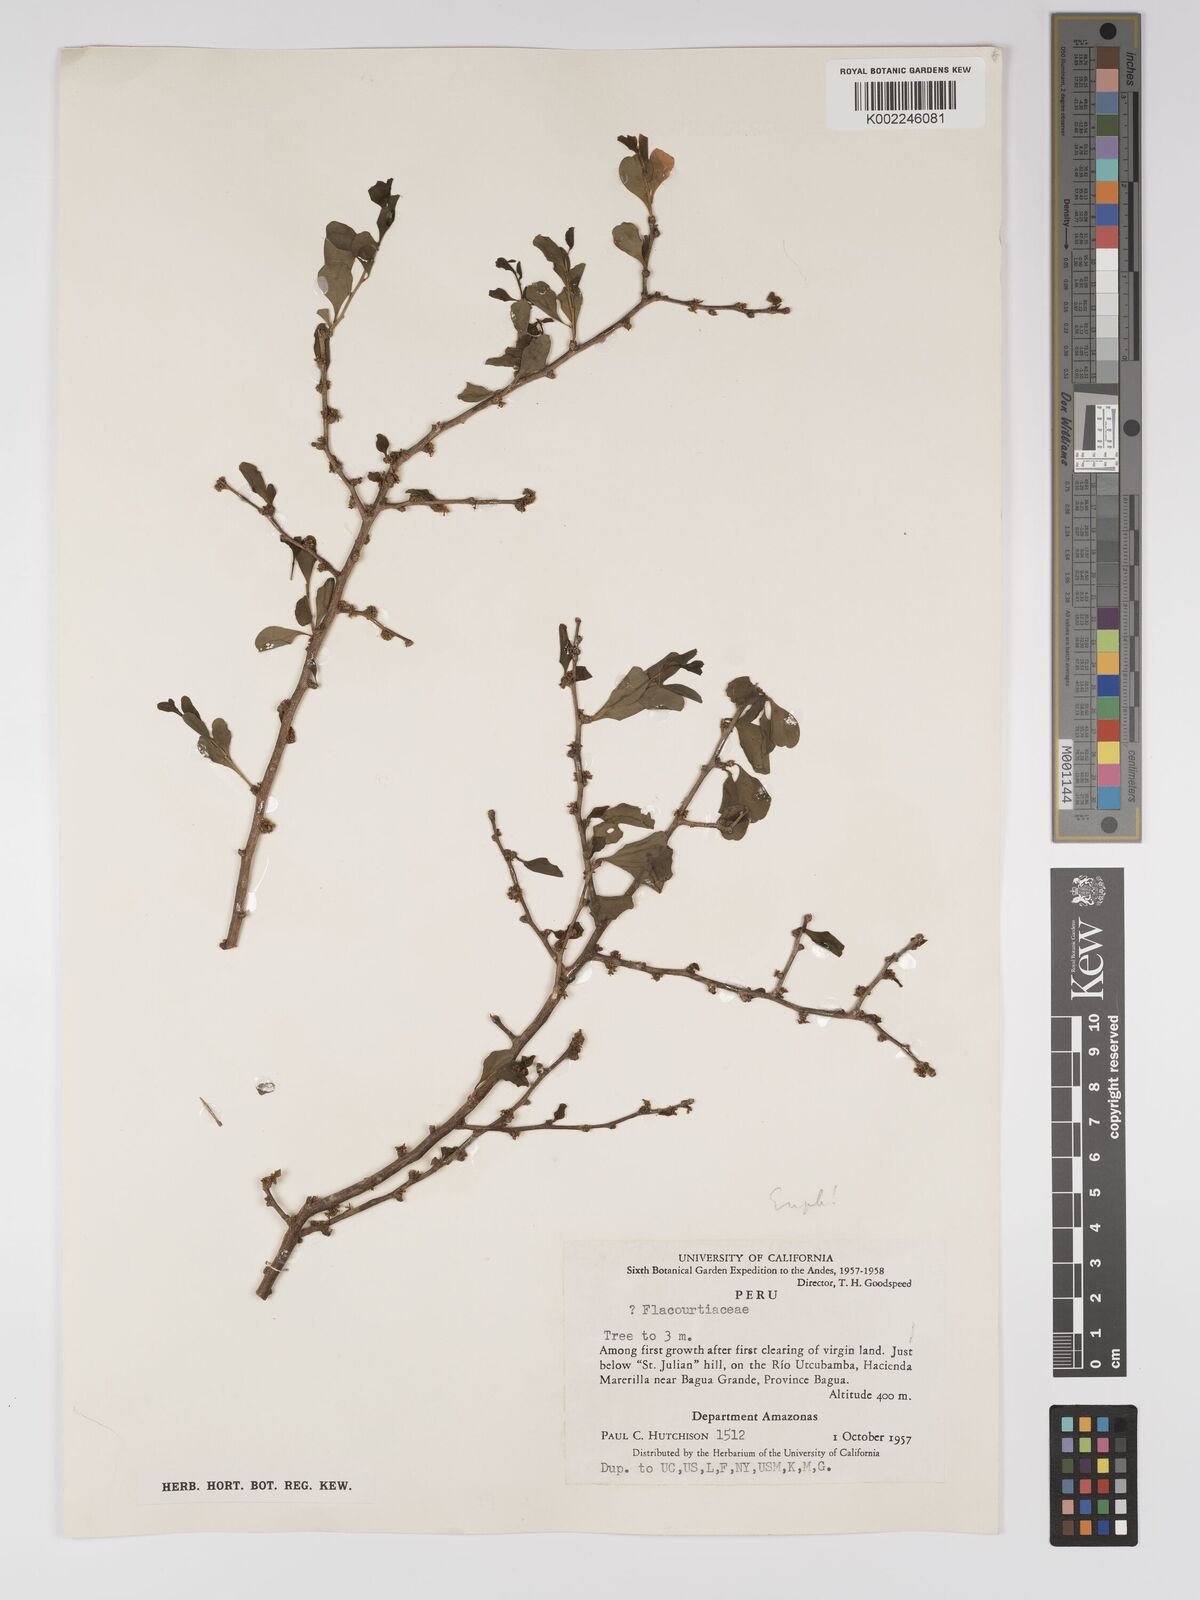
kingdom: Plantae
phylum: Tracheophyta
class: Magnoliopsida
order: Malpighiales
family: Euphorbiaceae
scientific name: Euphorbiaceae
